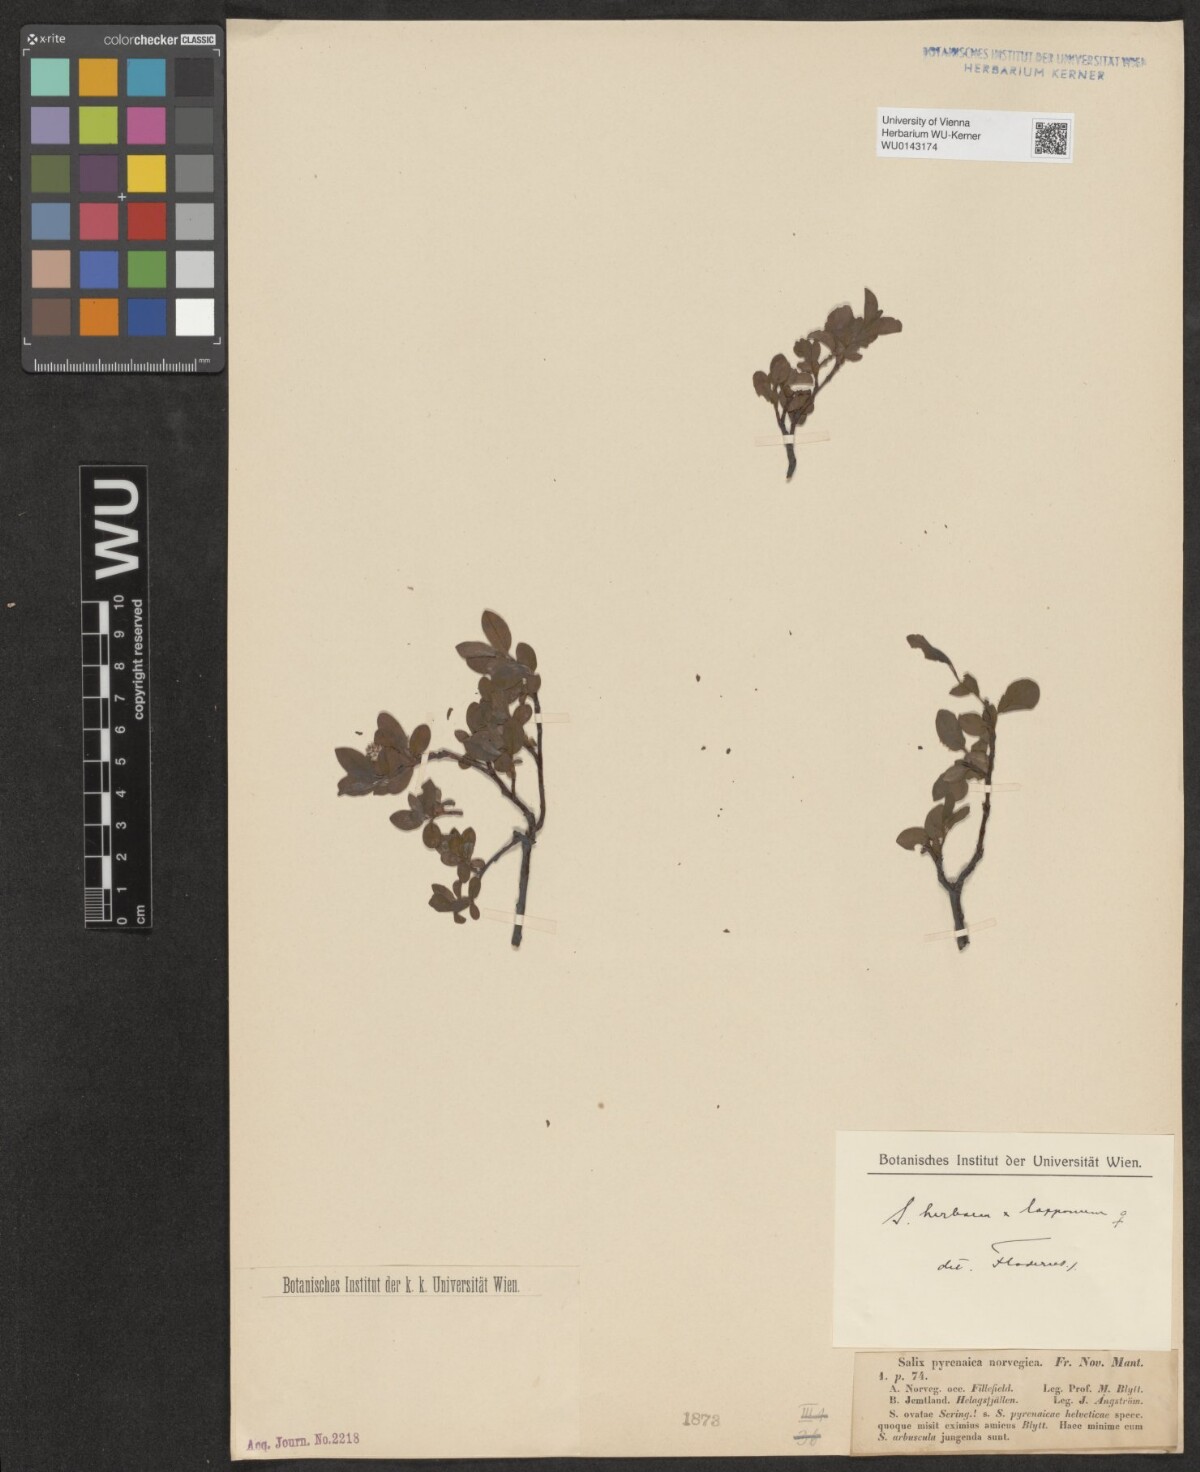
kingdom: Plantae
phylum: Tracheophyta
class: Magnoliopsida
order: Malpighiales
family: Salicaceae
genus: Salix
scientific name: Salix pyrenaica
